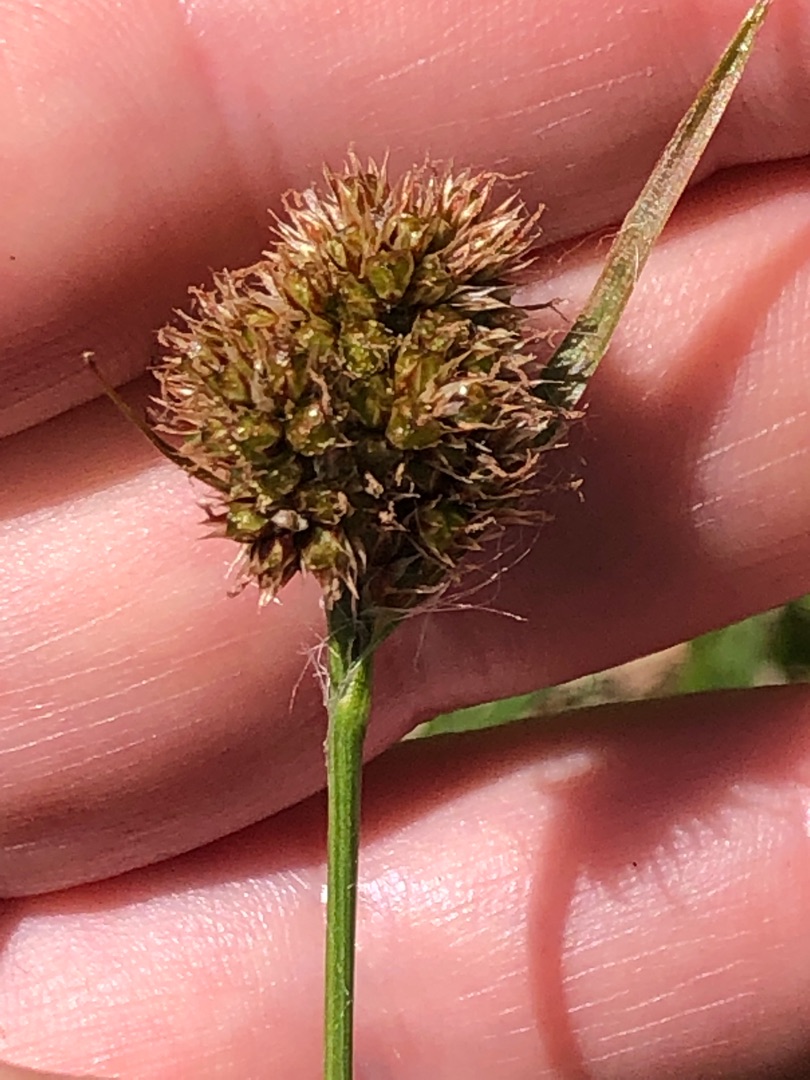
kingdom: Plantae
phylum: Tracheophyta
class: Liliopsida
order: Poales
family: Juncaceae
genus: Luzula
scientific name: Luzula congesta
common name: Hoved-frytle
